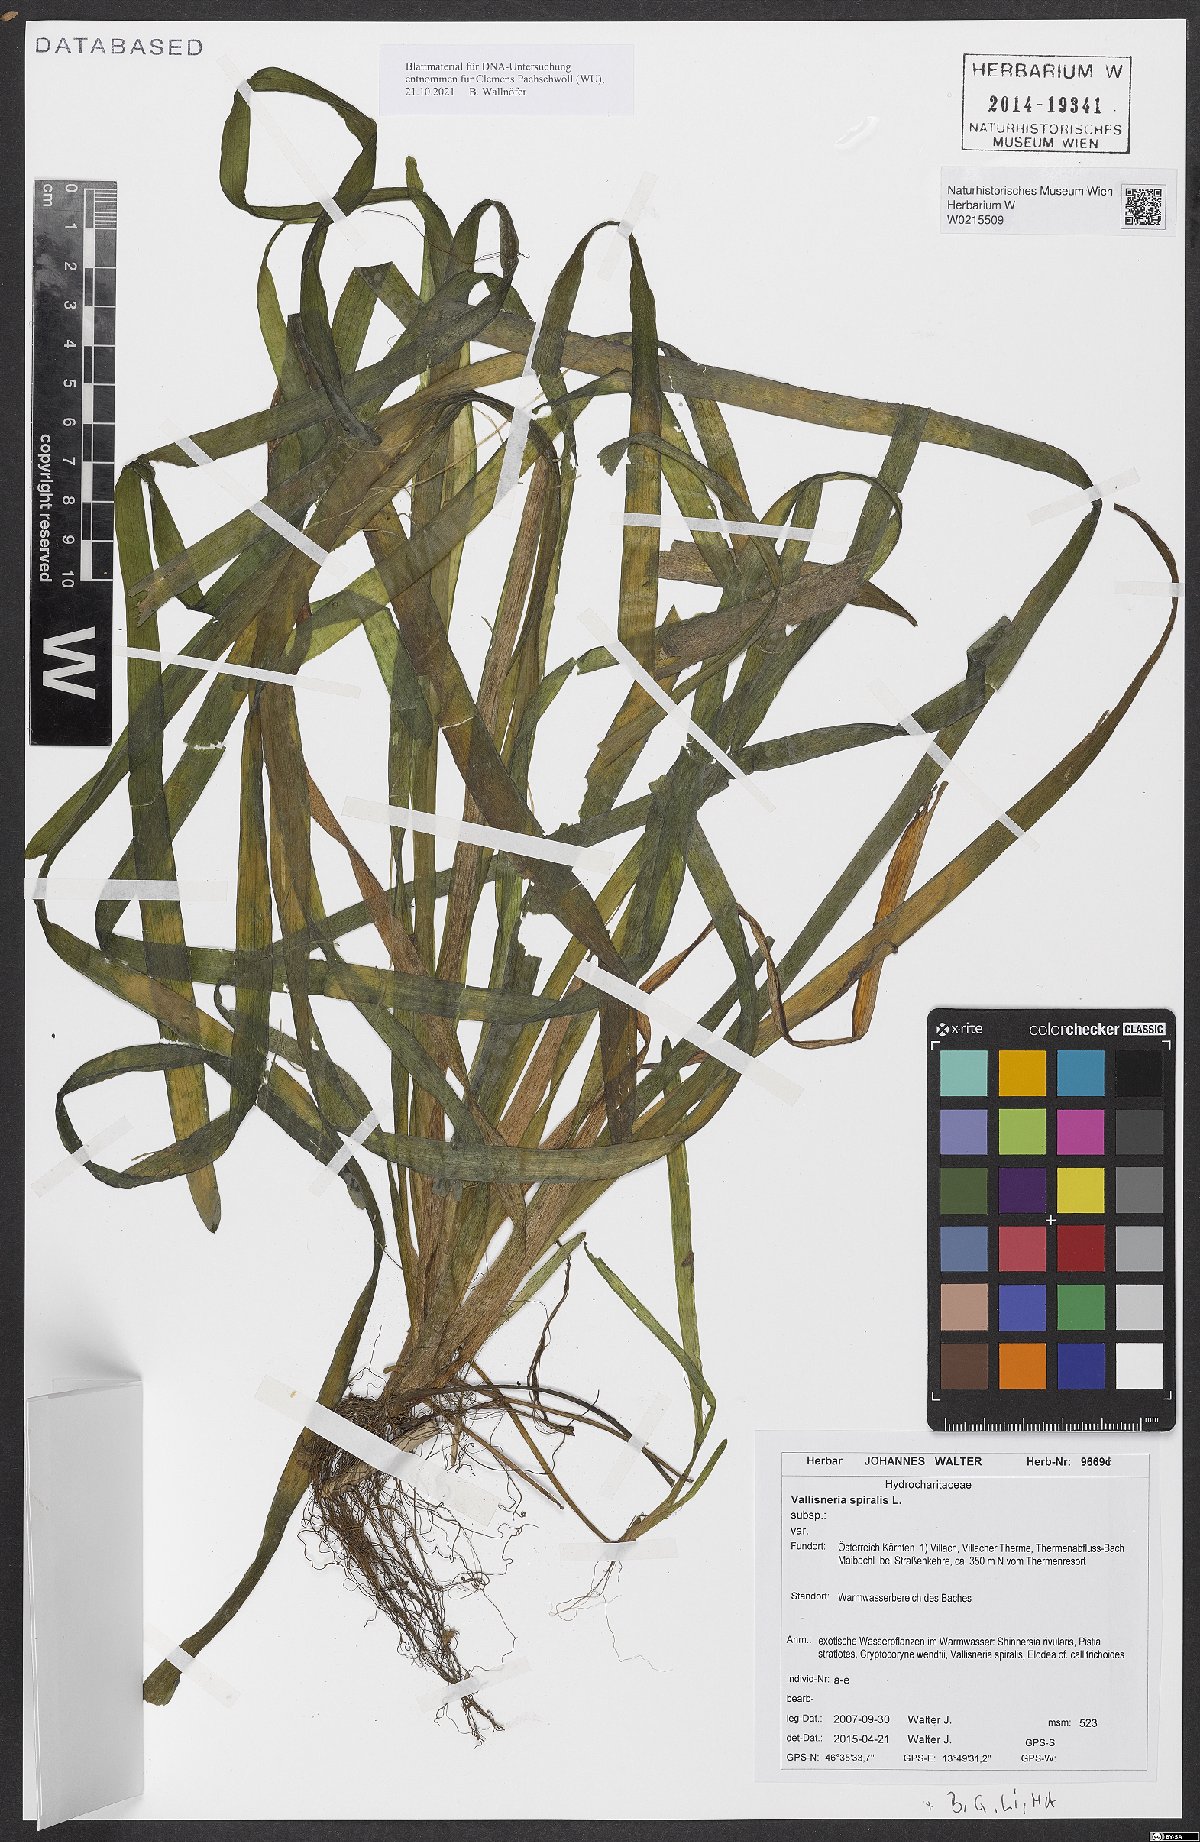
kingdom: Plantae
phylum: Tracheophyta
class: Liliopsida
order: Alismatales
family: Hydrocharitaceae
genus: Vallisneria
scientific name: Vallisneria spiralis
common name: Tapegrass
